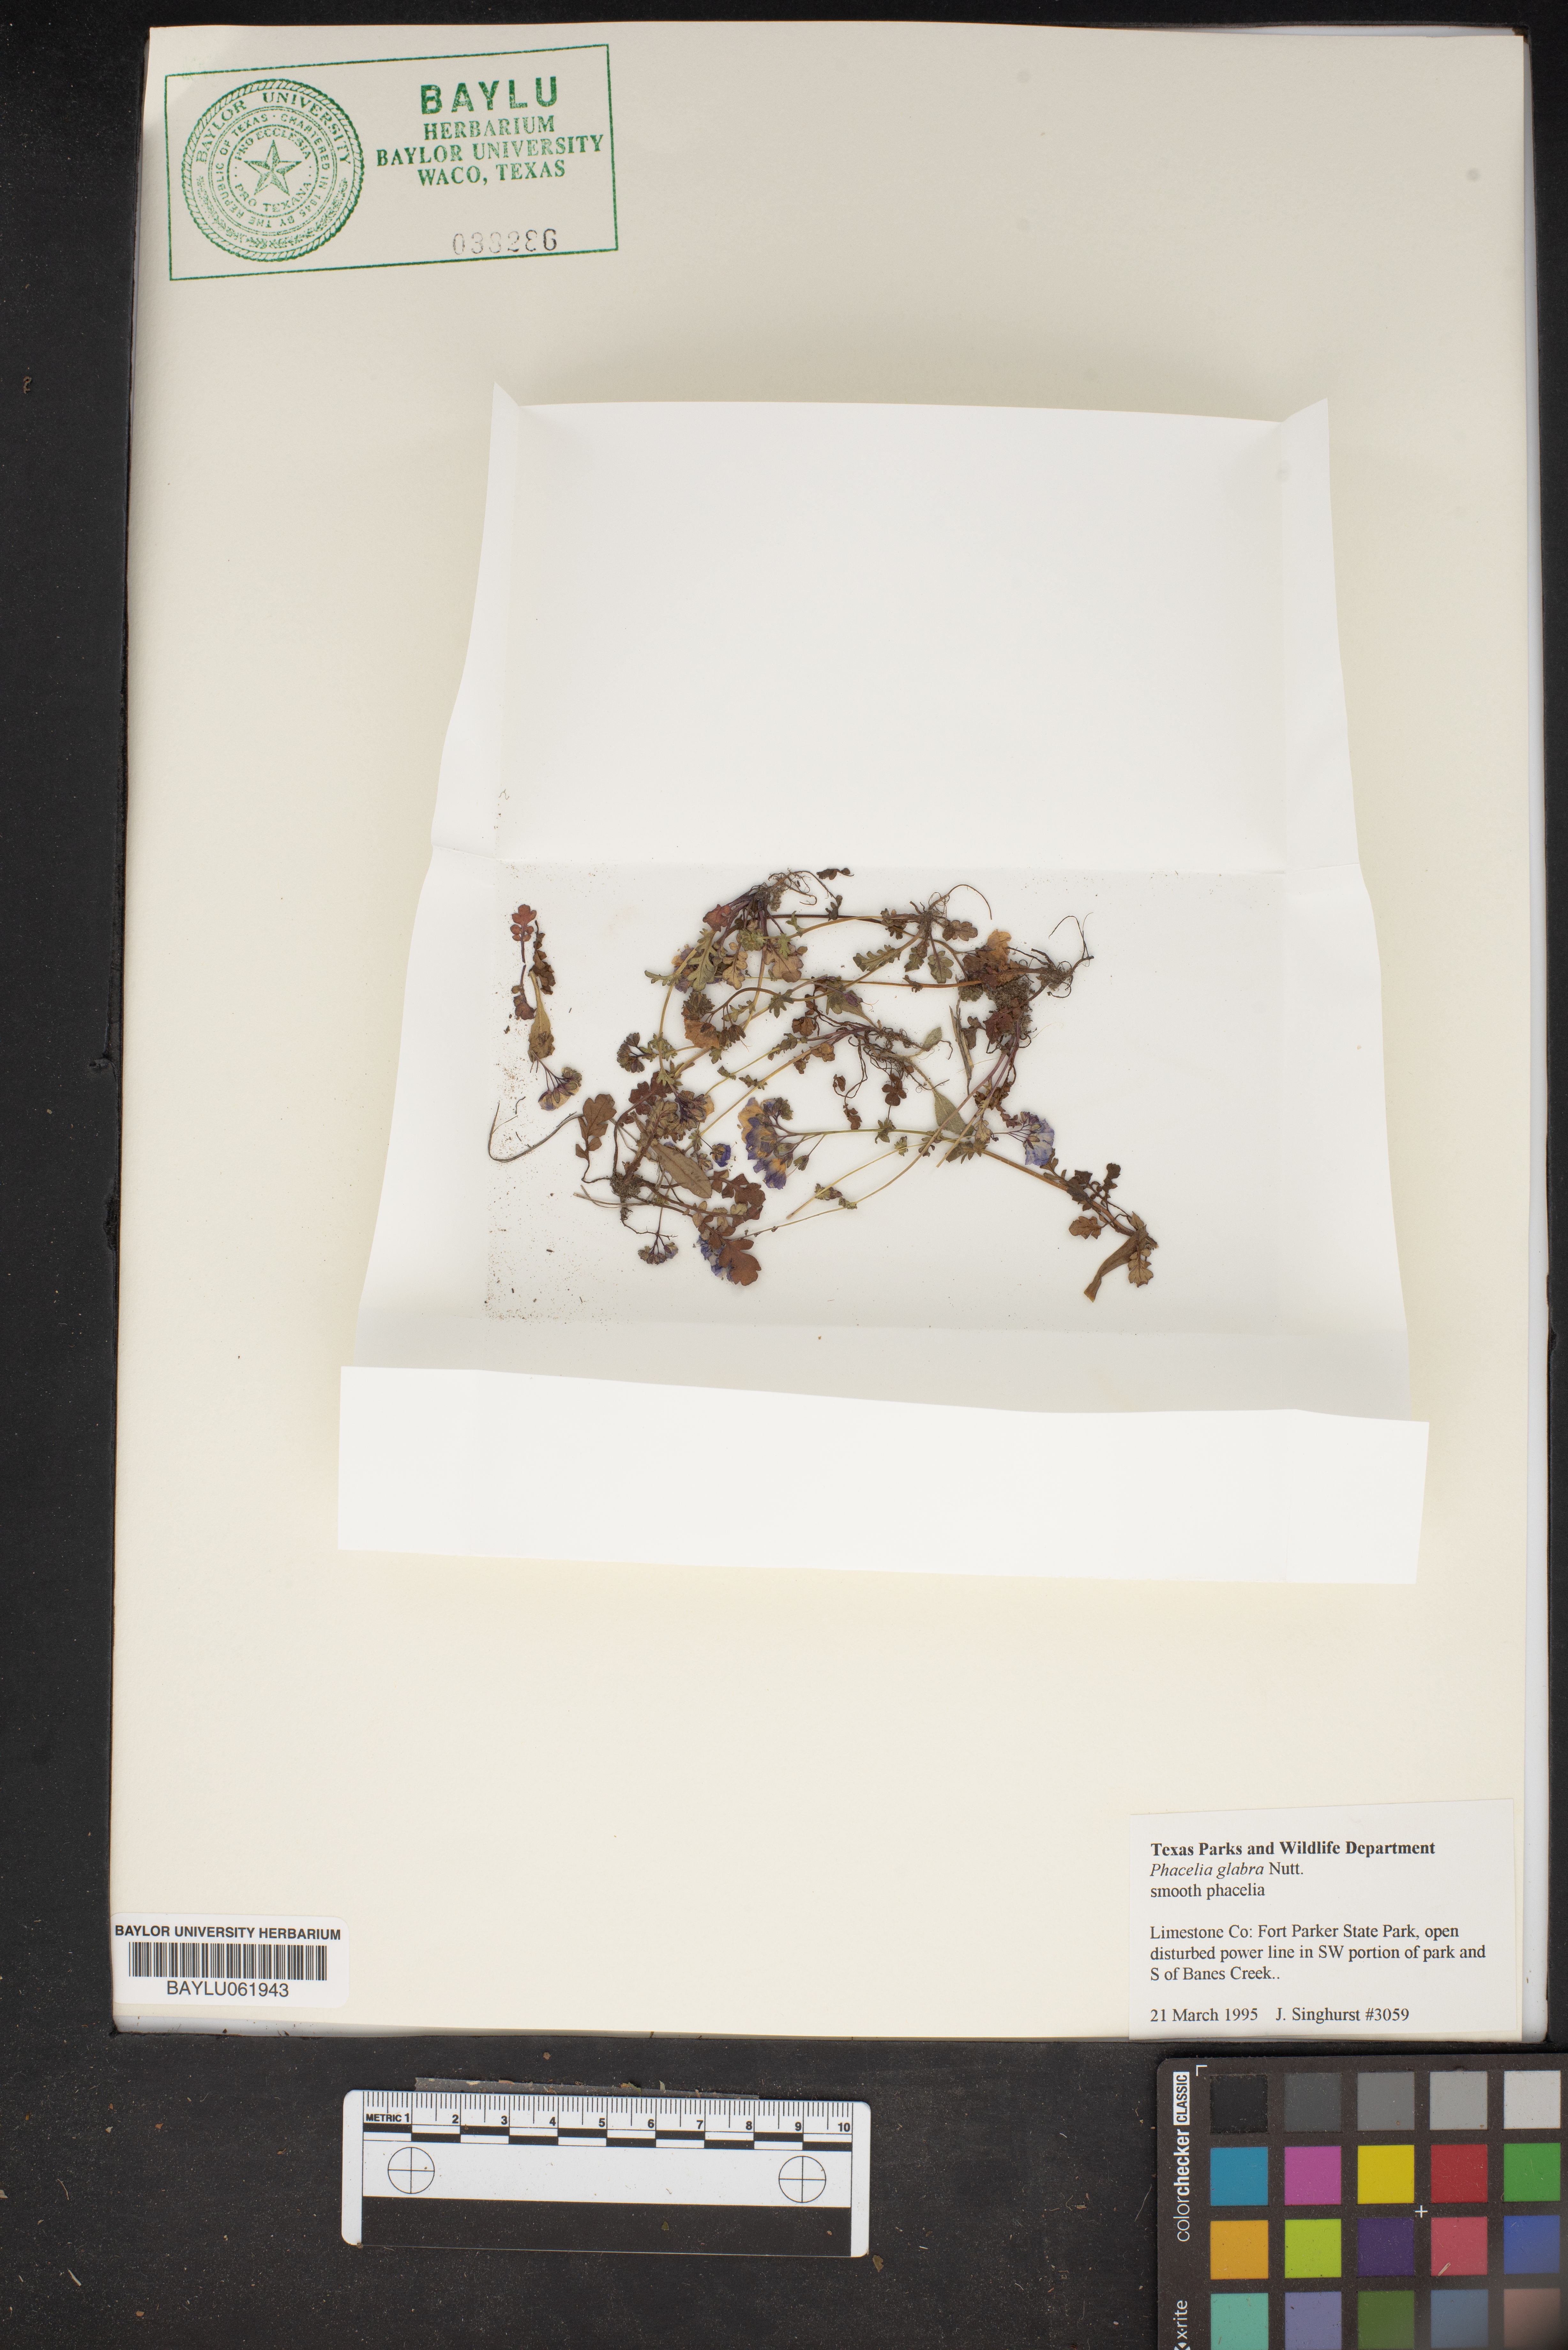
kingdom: Plantae
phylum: Tracheophyta
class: Magnoliopsida
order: Boraginales
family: Hydrophyllaceae
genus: Phacelia
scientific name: Phacelia glabra
